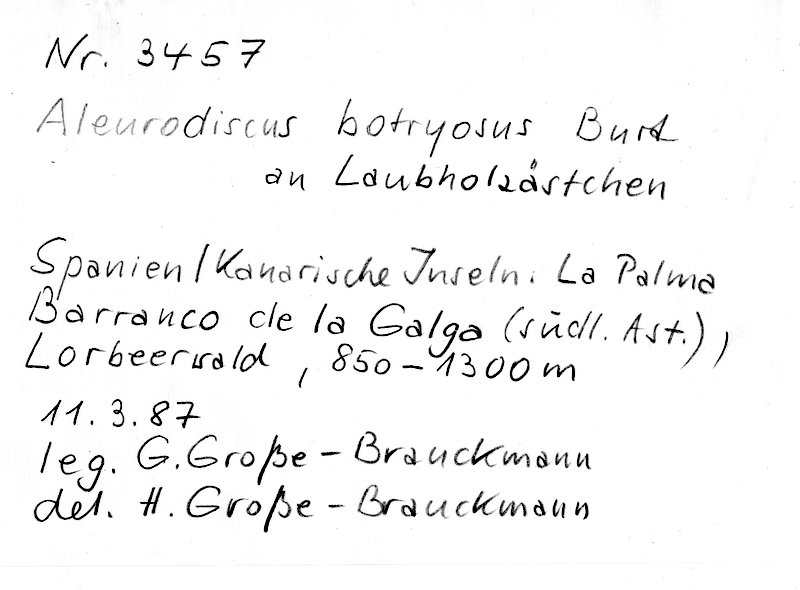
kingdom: Fungi
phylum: Basidiomycota
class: Agaricomycetes
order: Russulales
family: Stereaceae
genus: Aleurodiscus
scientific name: Aleurodiscus botryosus
